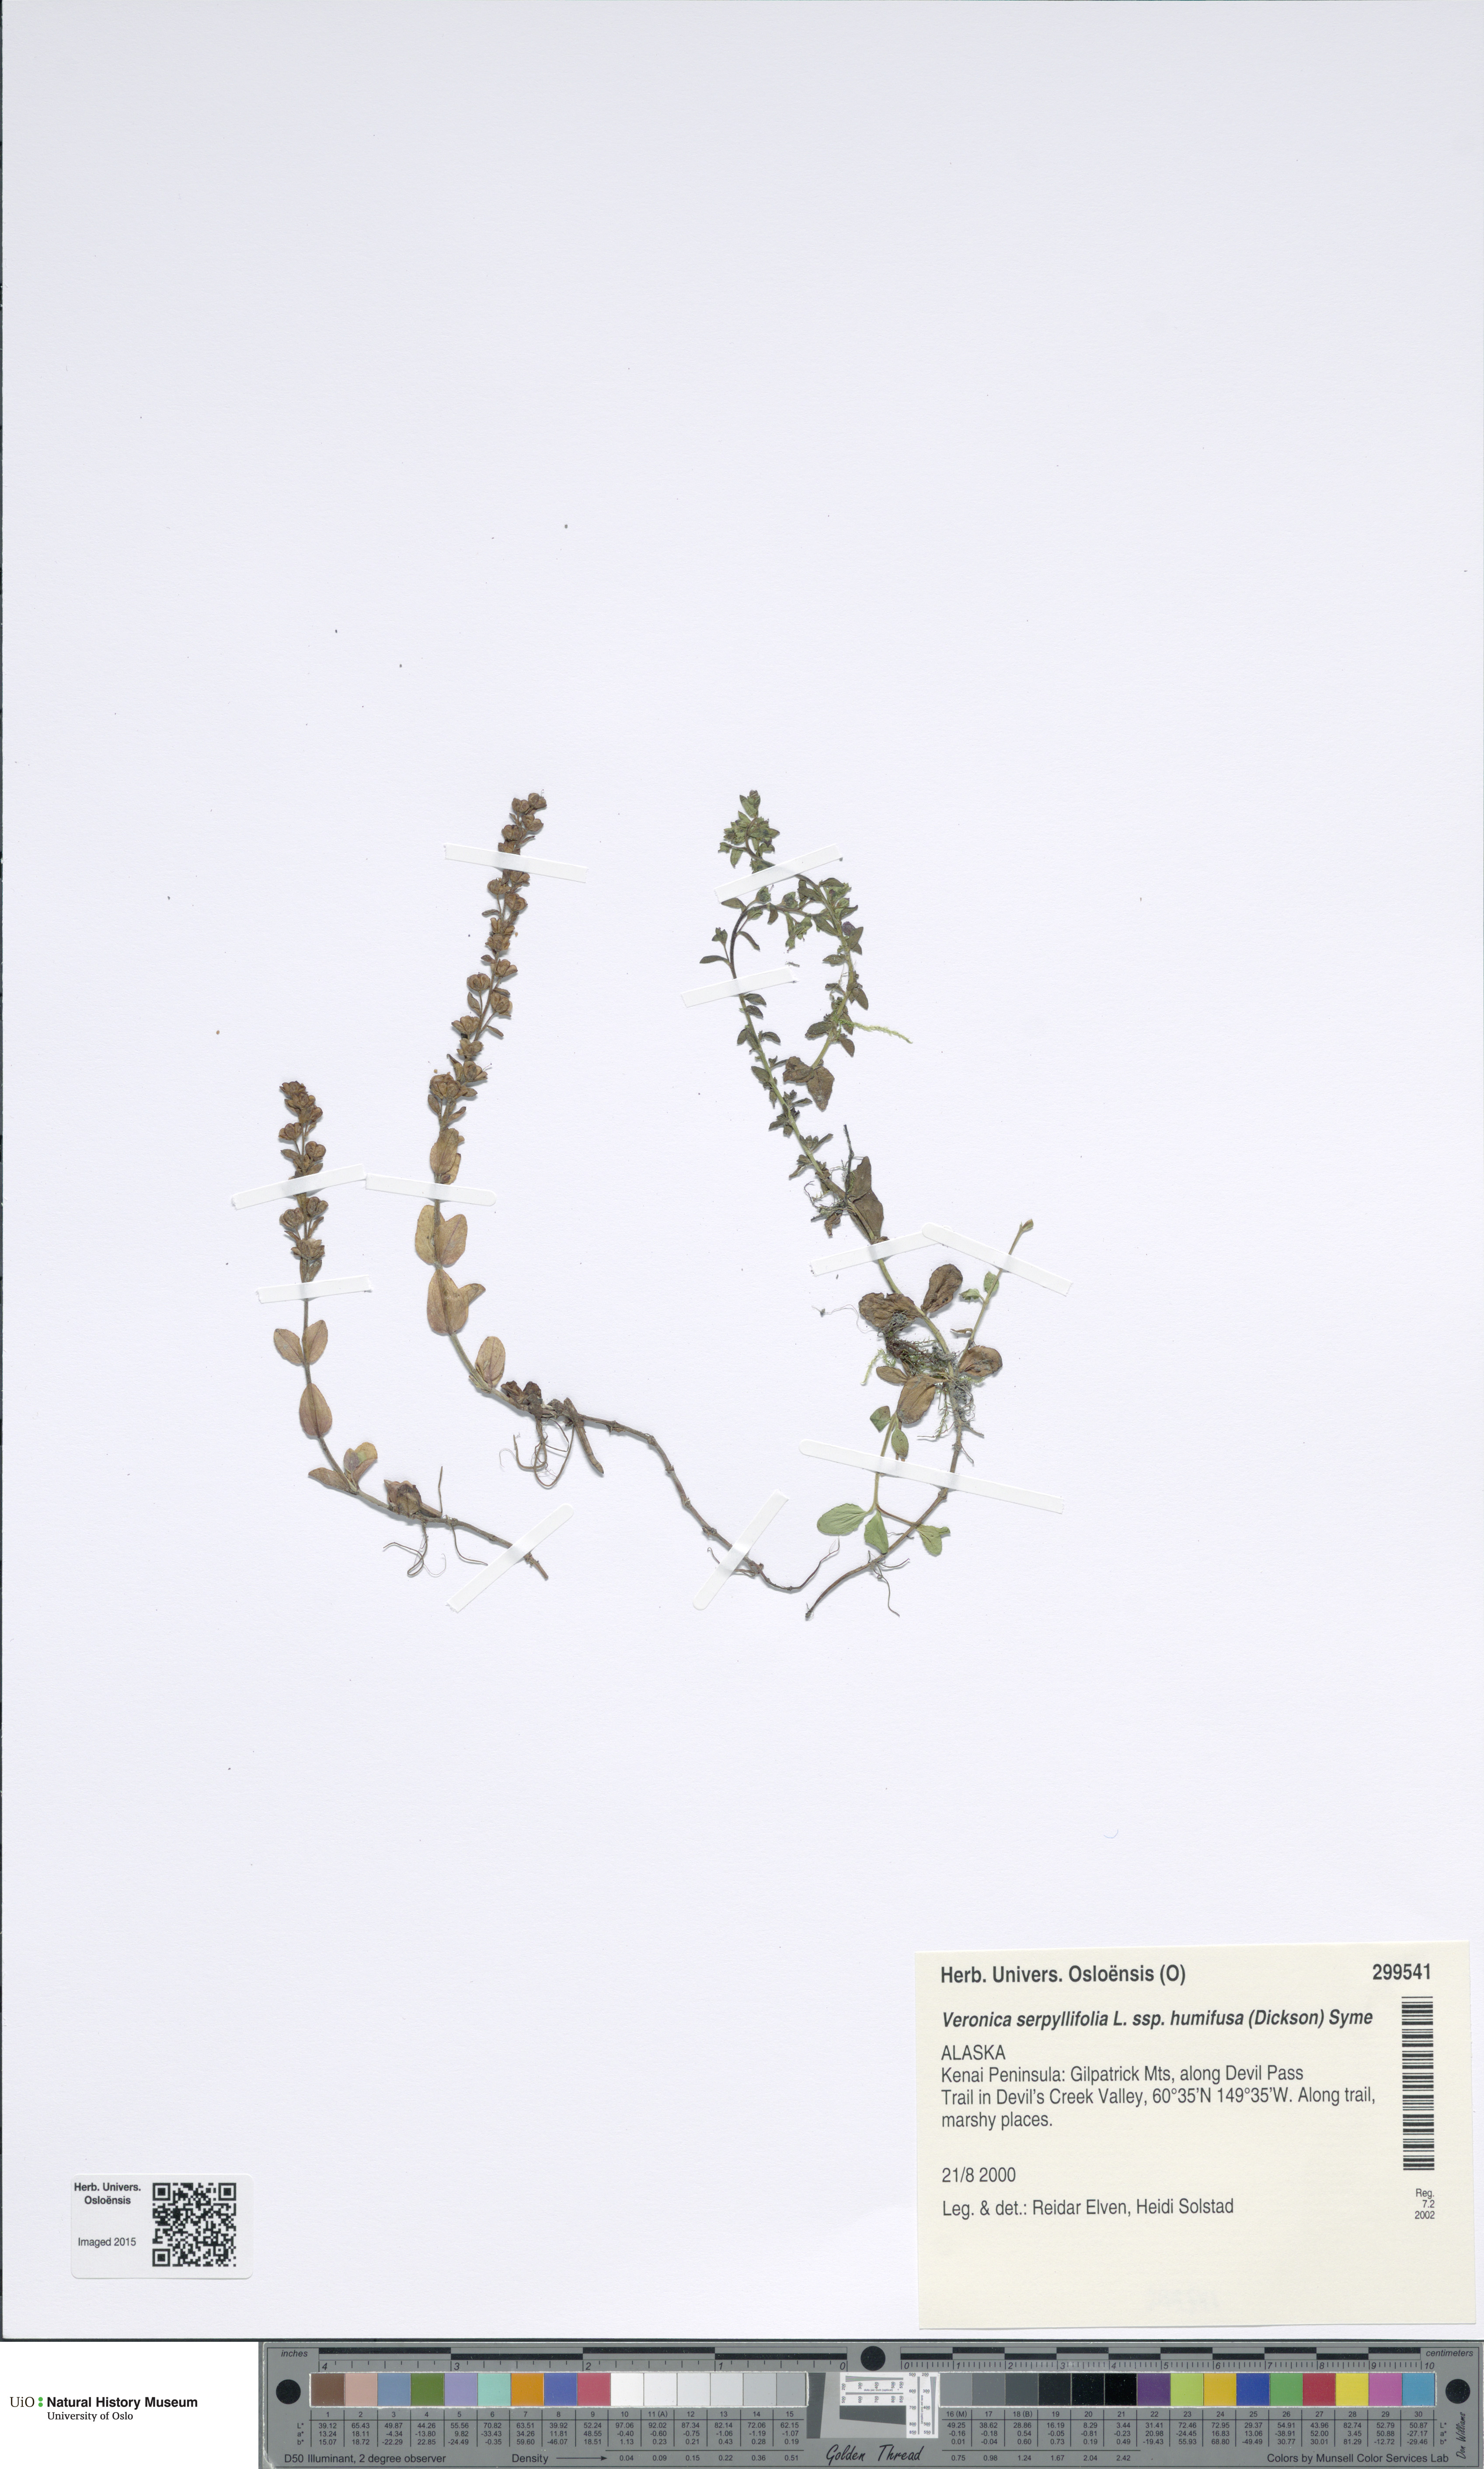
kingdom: Plantae
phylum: Tracheophyta
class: Magnoliopsida
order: Lamiales
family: Plantaginaceae
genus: Veronica
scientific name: Veronica serpyllifolia
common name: Thyme-leaved speedwell
